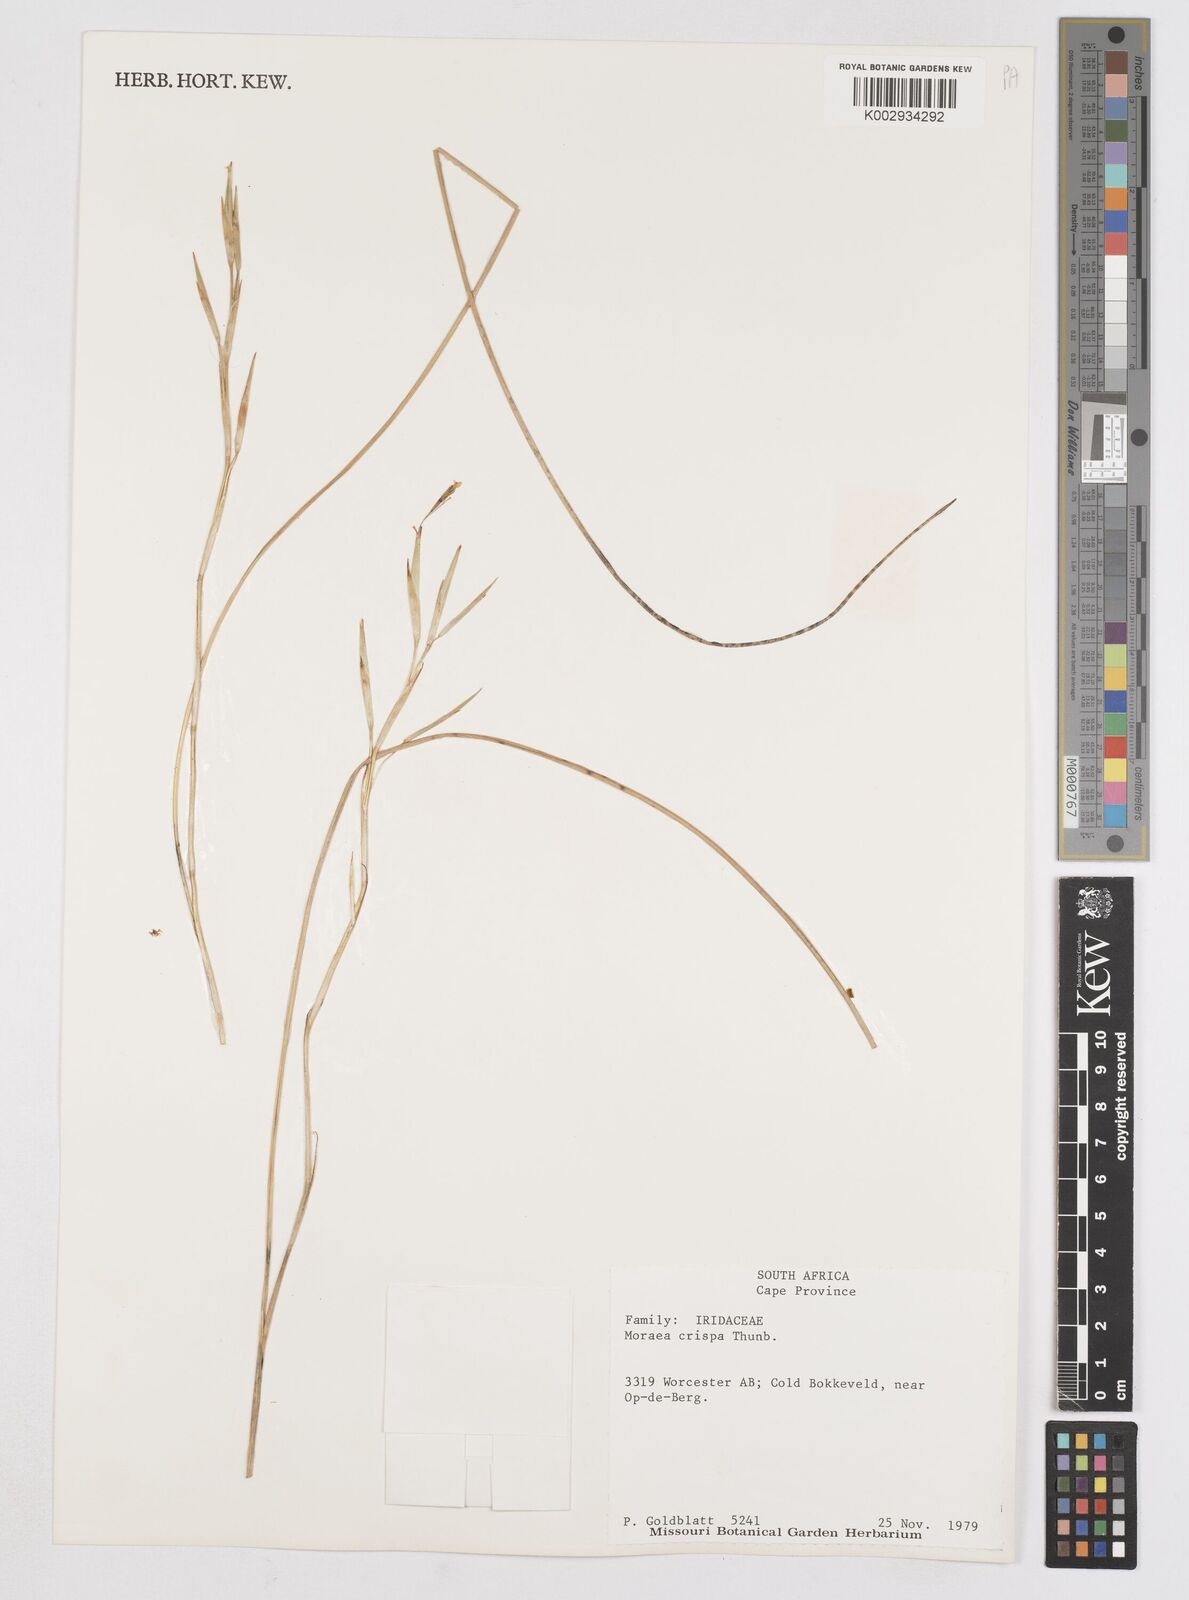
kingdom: Plantae
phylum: Tracheophyta
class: Liliopsida
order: Asparagales
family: Iridaceae
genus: Moraea
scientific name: Moraea crispa
